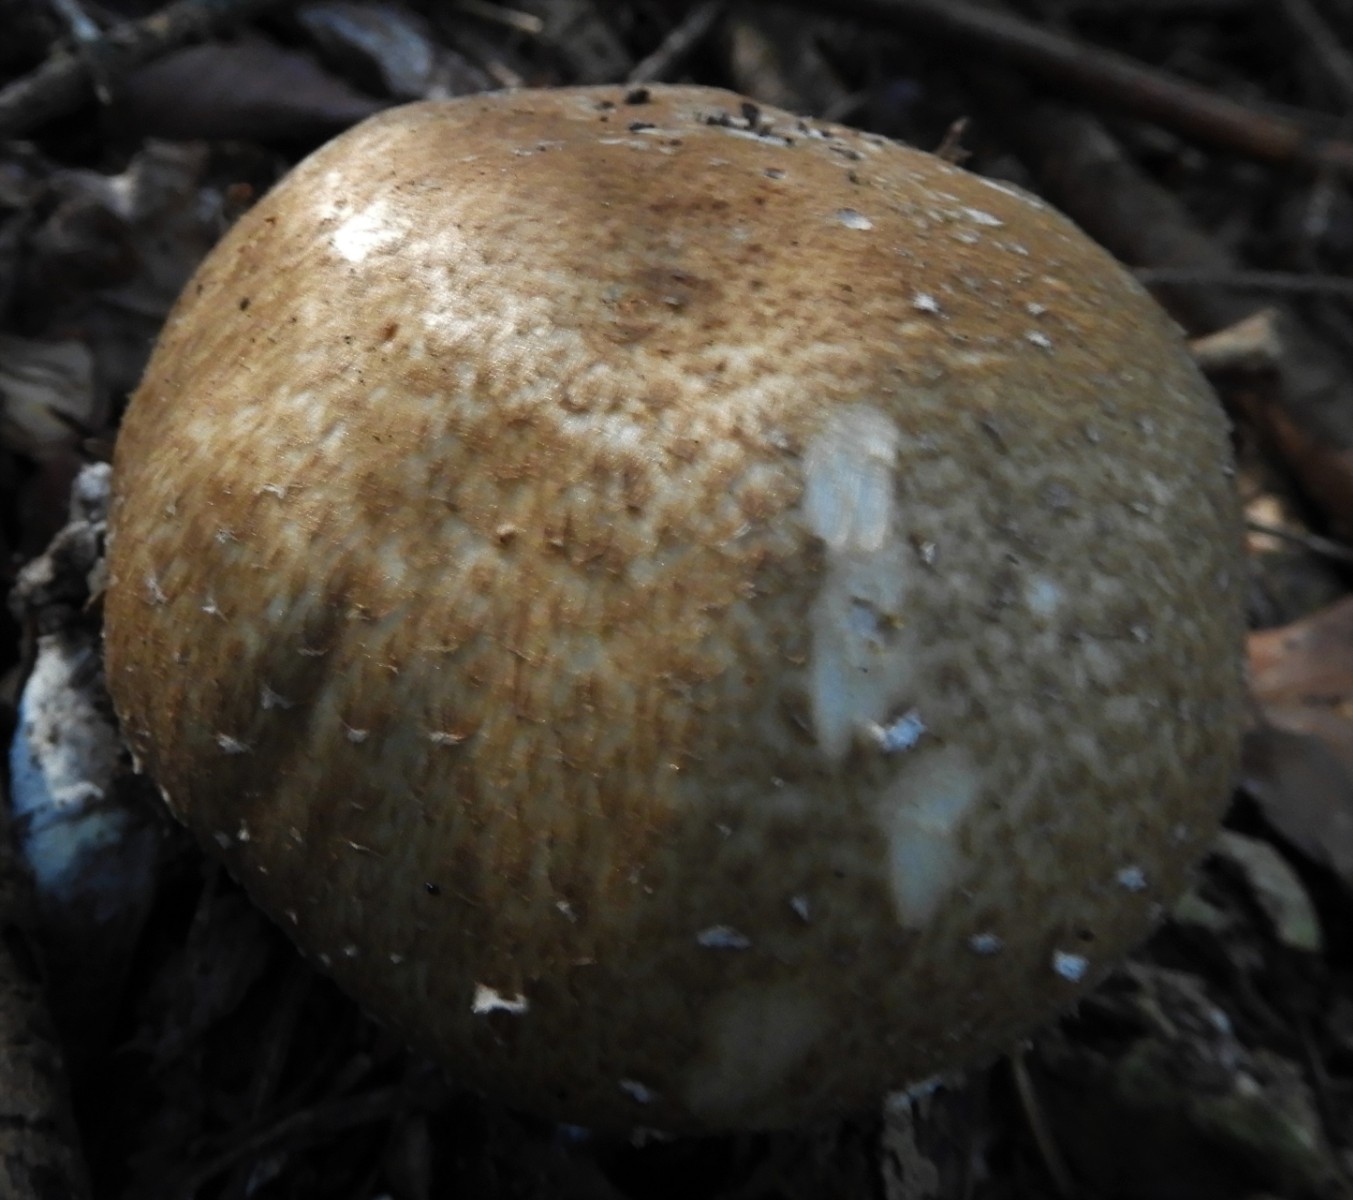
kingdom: Fungi
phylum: Basidiomycota
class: Agaricomycetes
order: Agaricales
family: Agaricaceae
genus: Agaricus
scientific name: Agaricus augustus
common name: prægtig champignon
